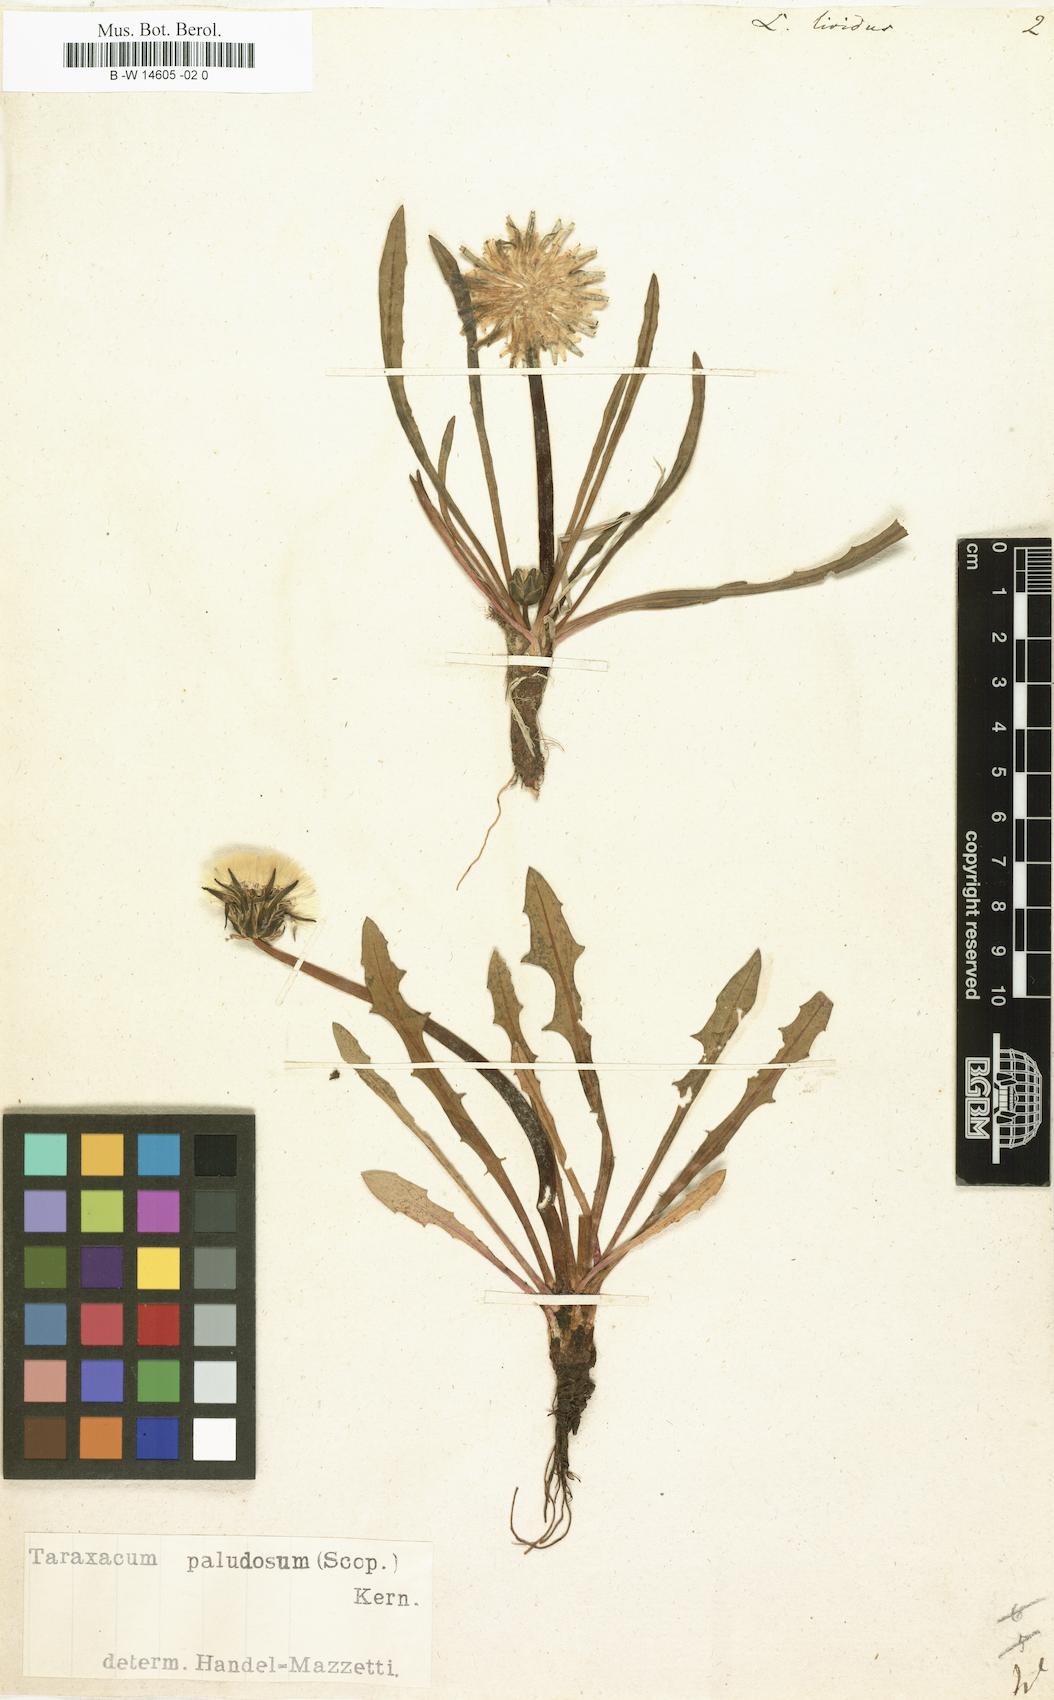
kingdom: Plantae
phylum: Tracheophyta
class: Magnoliopsida
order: Asterales
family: Asteraceae
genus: Taraxacum
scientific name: Taraxacum paludosum
